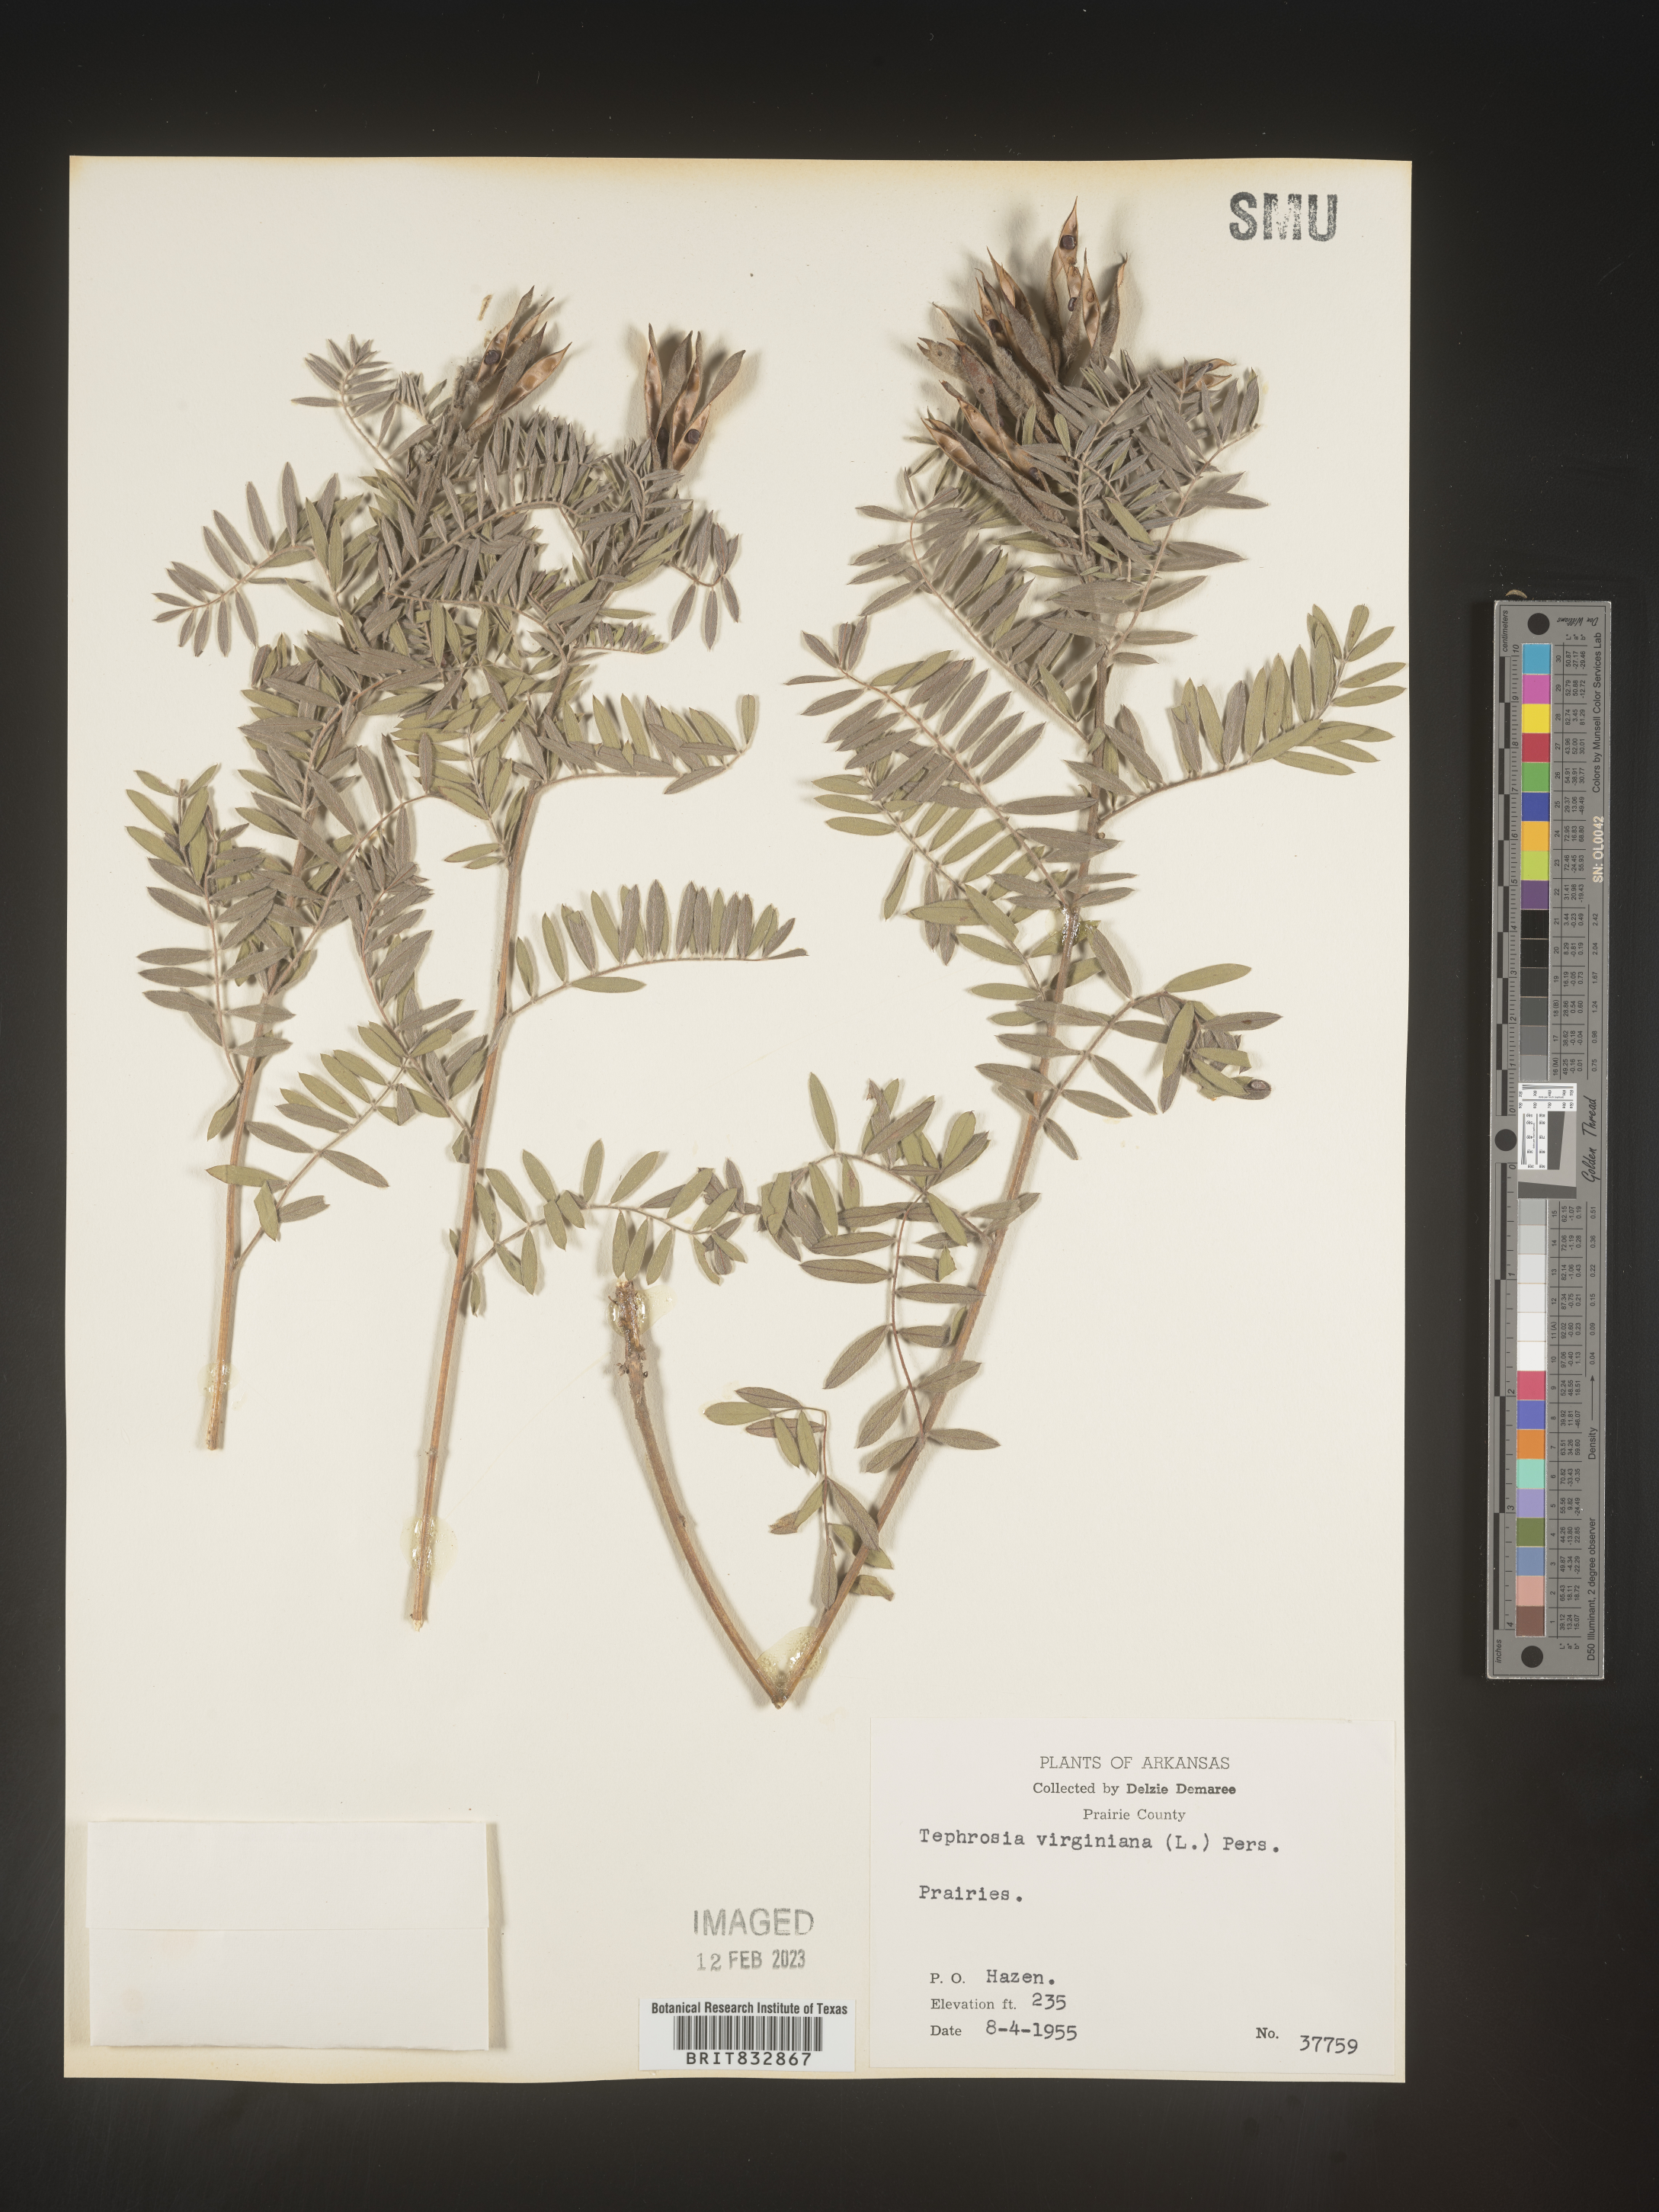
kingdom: Plantae
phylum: Tracheophyta
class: Magnoliopsida
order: Fabales
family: Fabaceae
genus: Tephrosia
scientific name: Tephrosia virginiana
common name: Rabbit-pea
